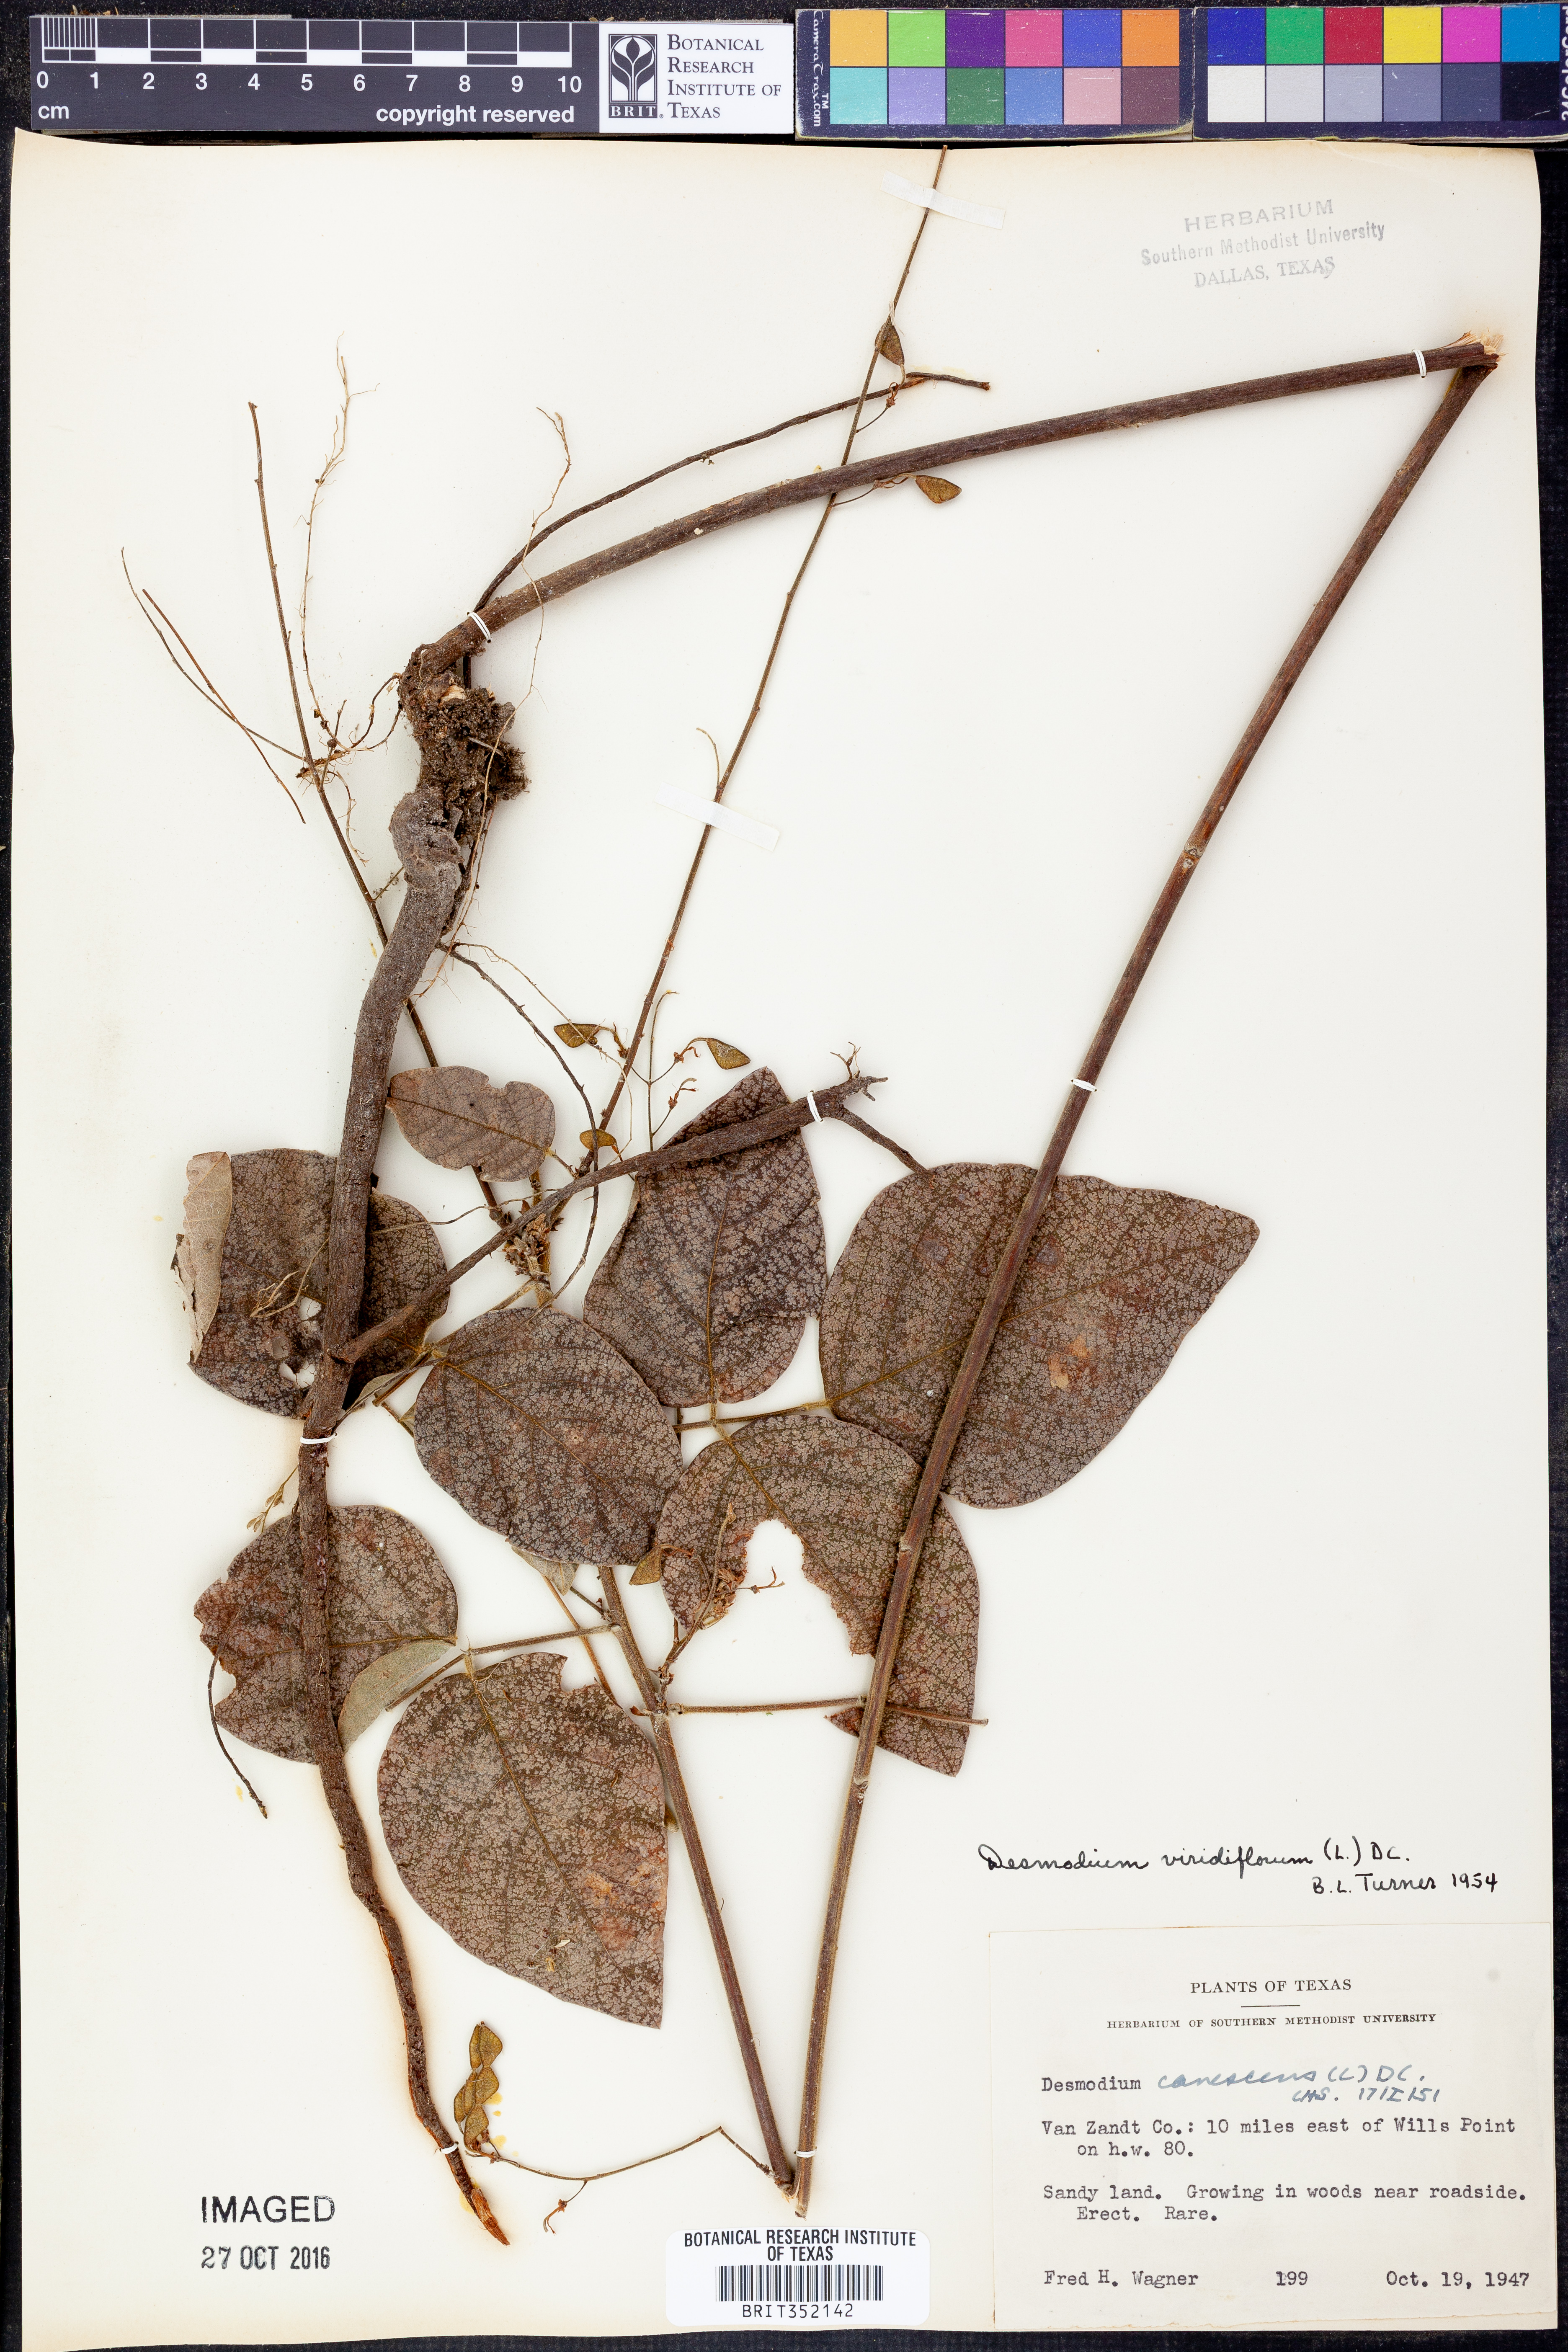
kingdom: Plantae
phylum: Tracheophyta
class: Magnoliopsida
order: Fabales
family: Fabaceae
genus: Desmodium
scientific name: Desmodium viridiflorum
